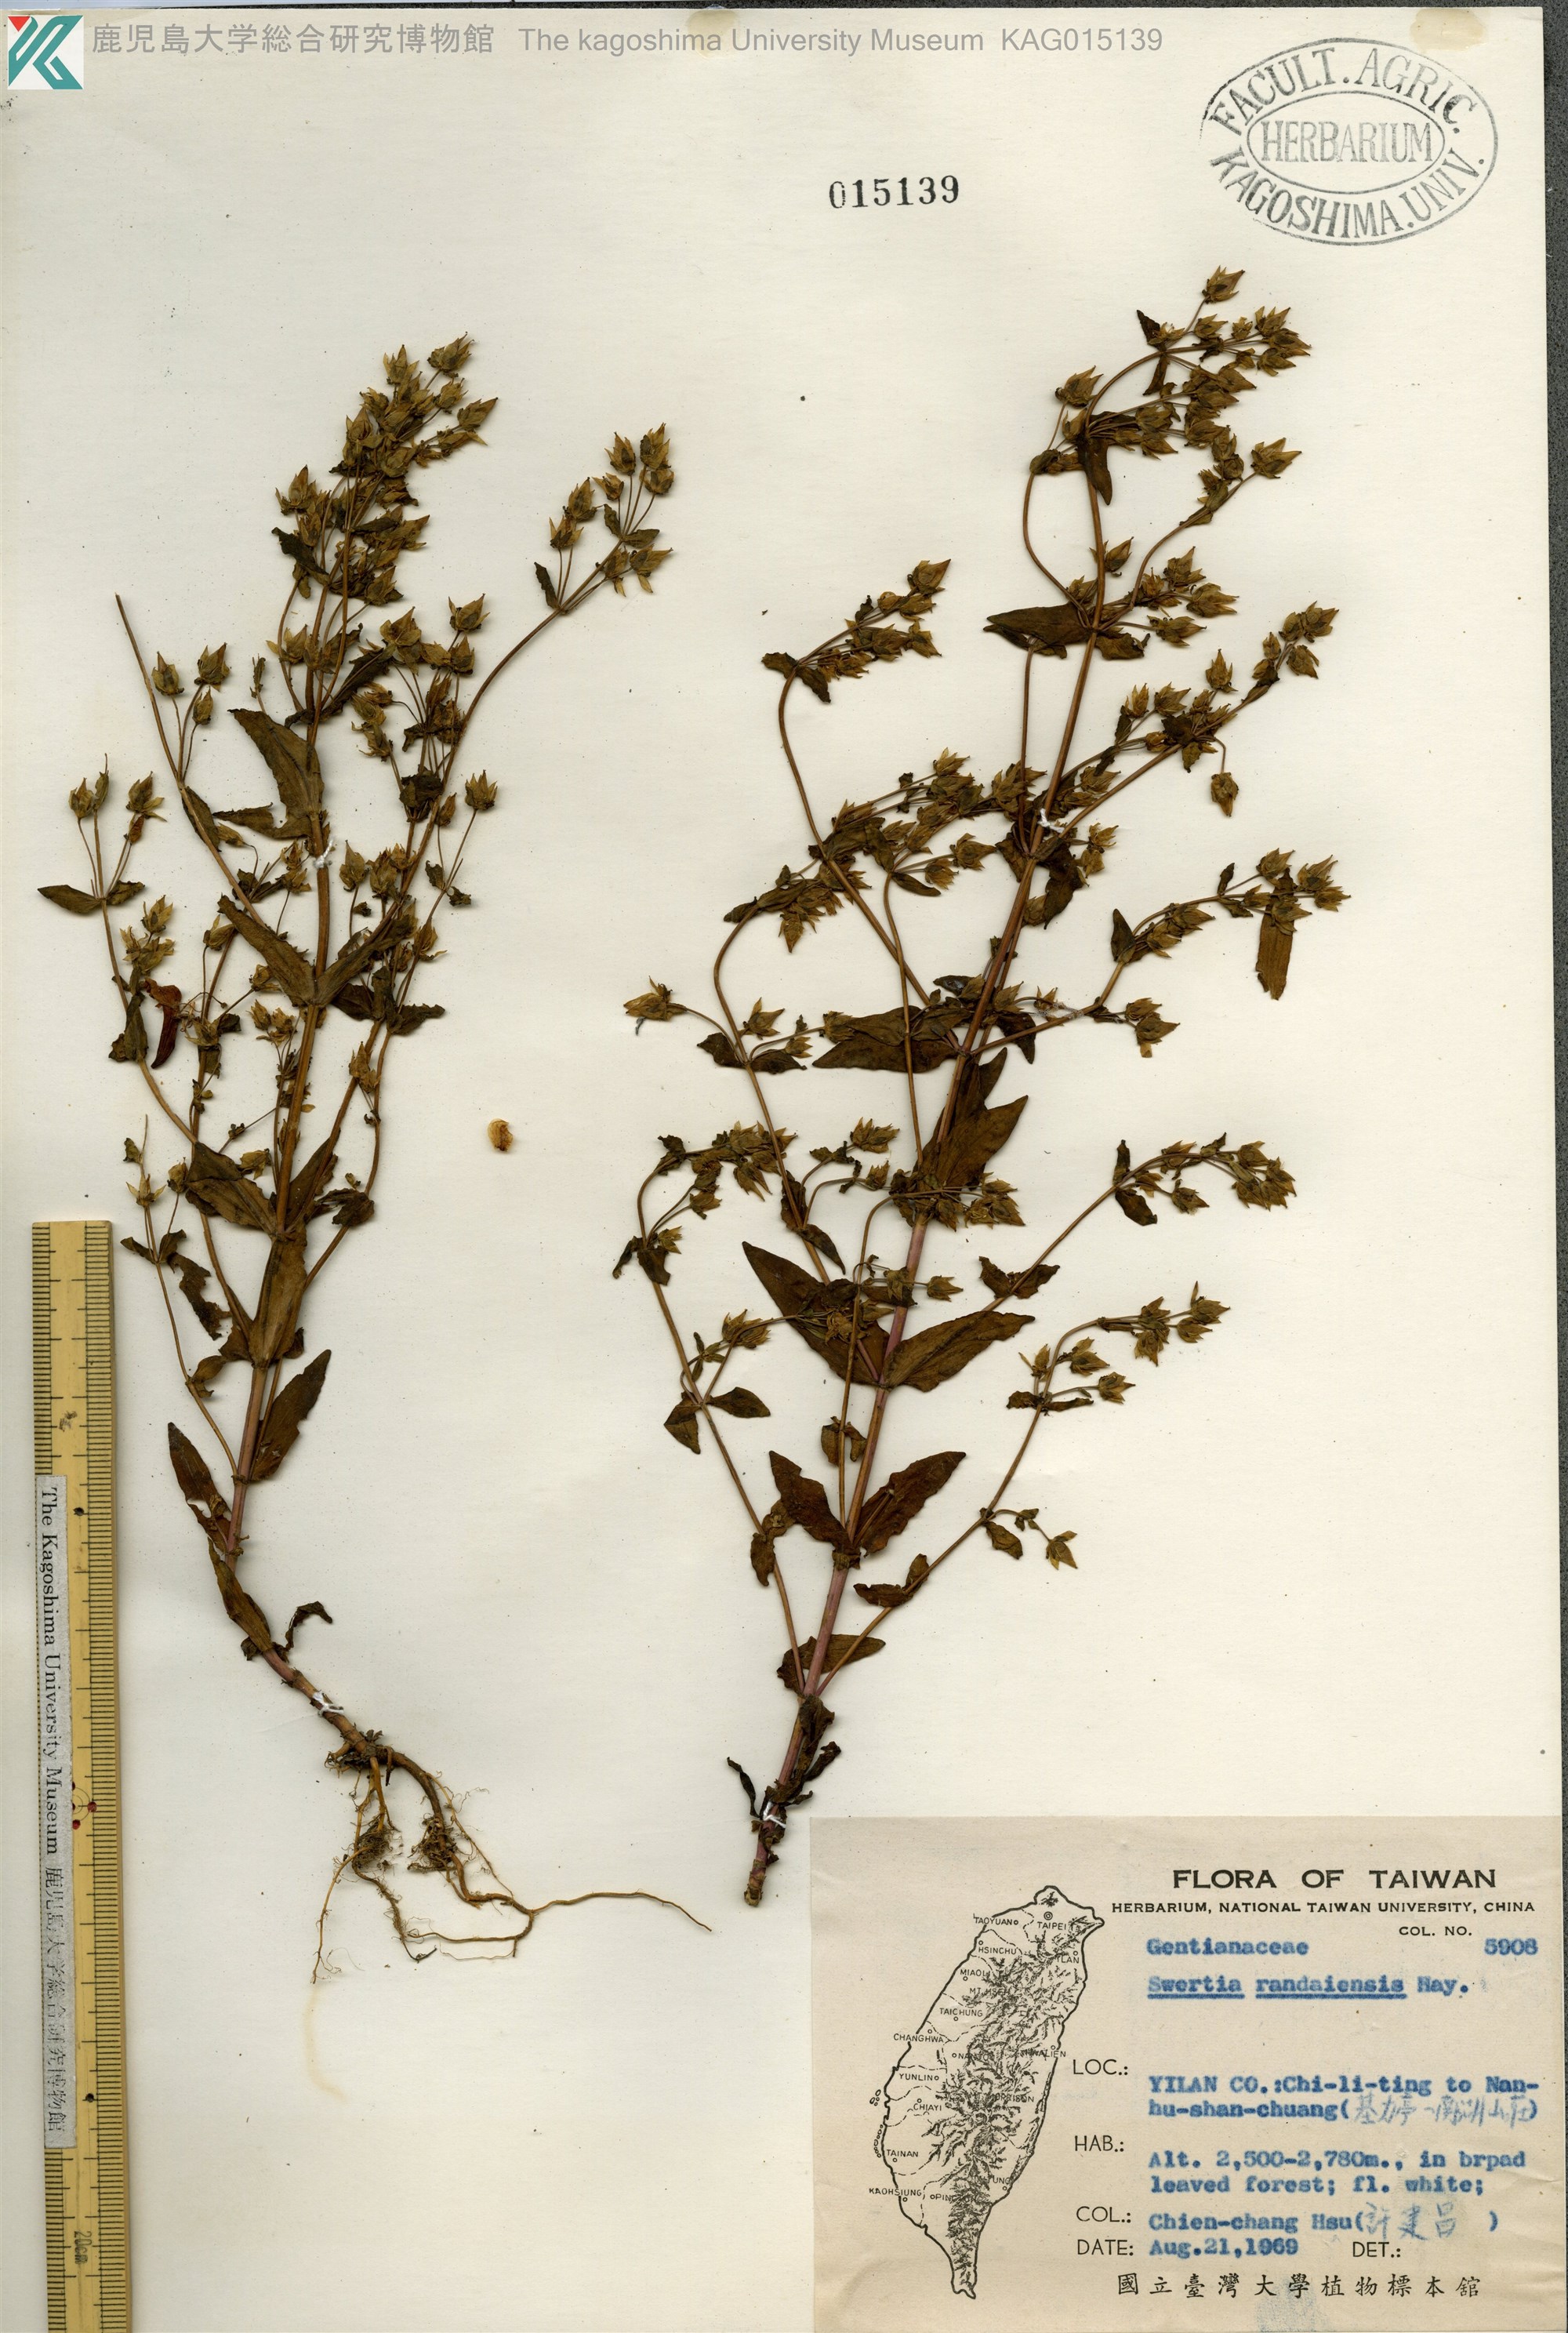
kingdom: Plantae
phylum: Tracheophyta
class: Magnoliopsida
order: Gentianales
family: Gentianaceae
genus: Swertia
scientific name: Swertia macrosperma
